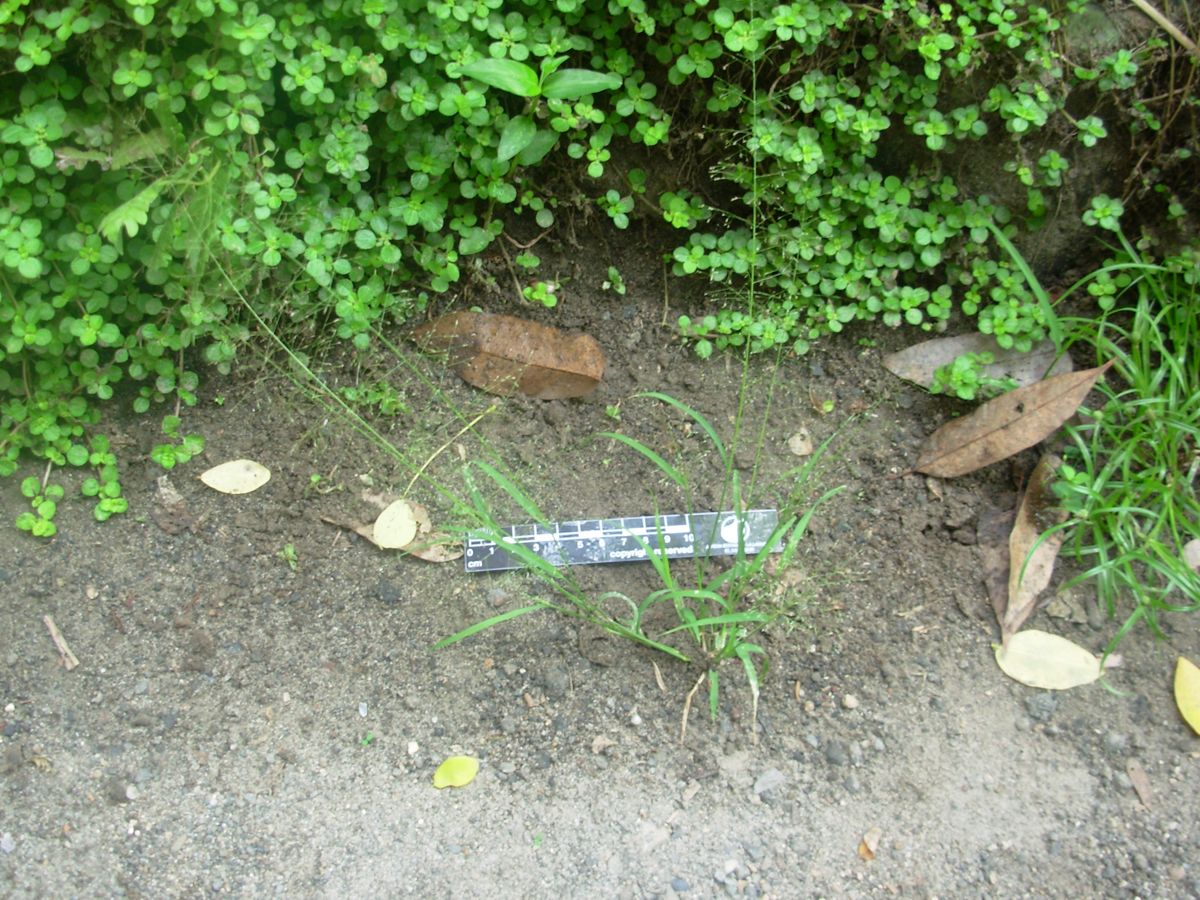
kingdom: Plantae
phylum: Tracheophyta
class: Liliopsida
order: Poales
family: Poaceae
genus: Sporobolus
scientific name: Sporobolus tenuissimus
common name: Tropical dropseed
